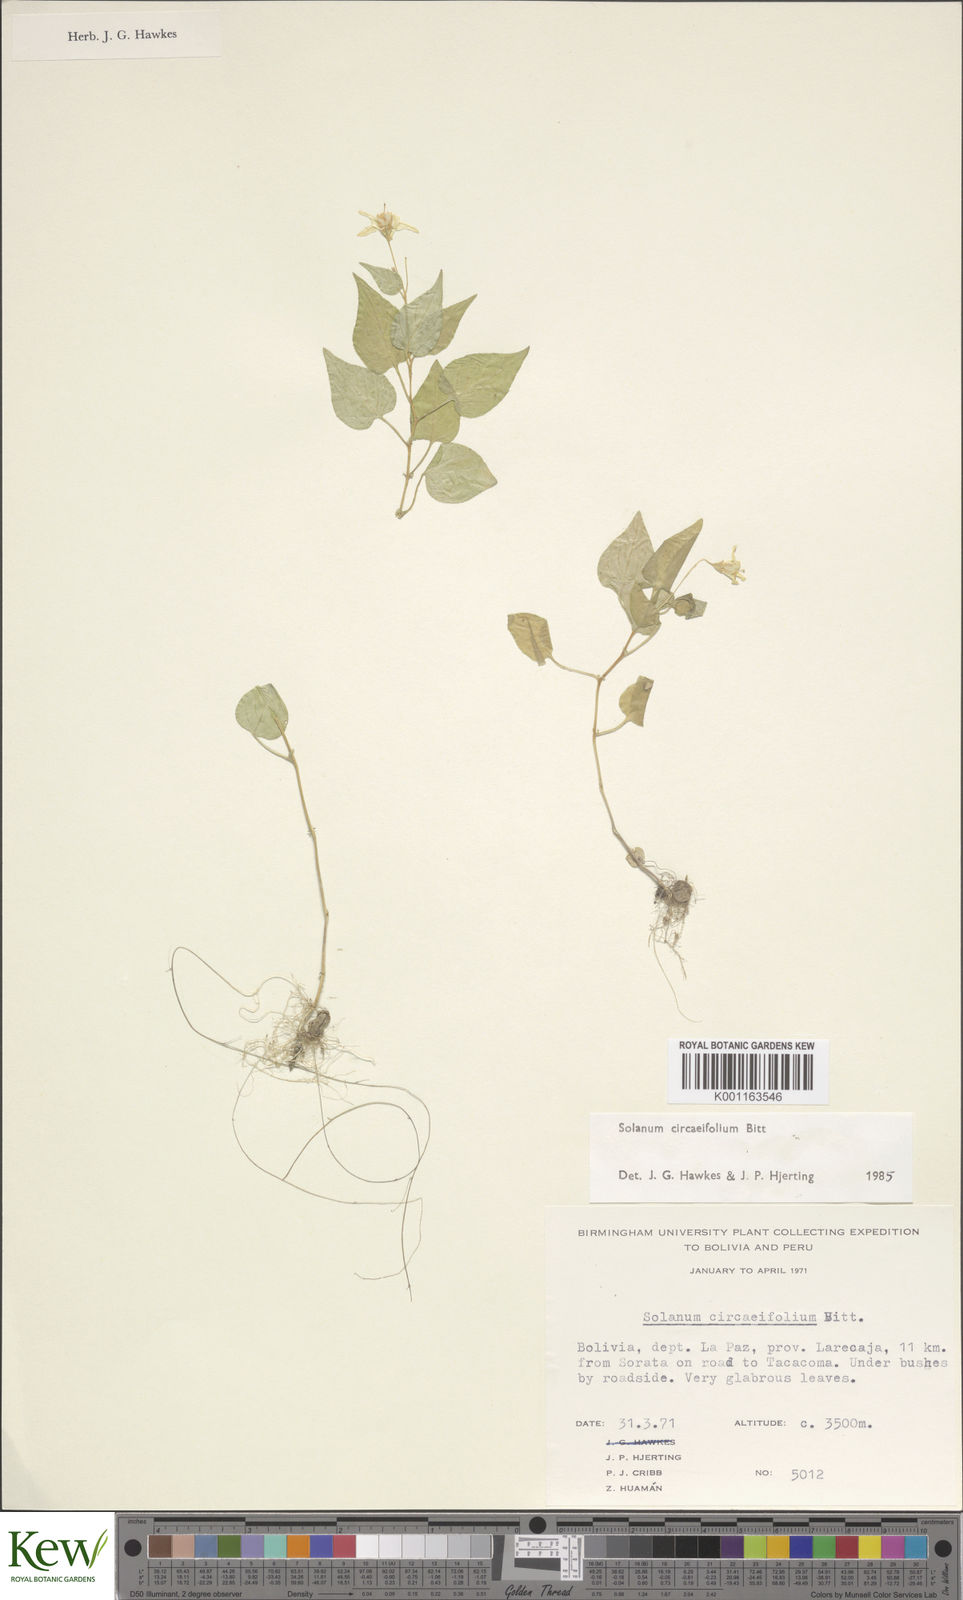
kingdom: Plantae
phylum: Tracheophyta
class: Magnoliopsida
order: Solanales
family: Solanaceae
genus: Solanum
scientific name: Solanum stipuloideum
